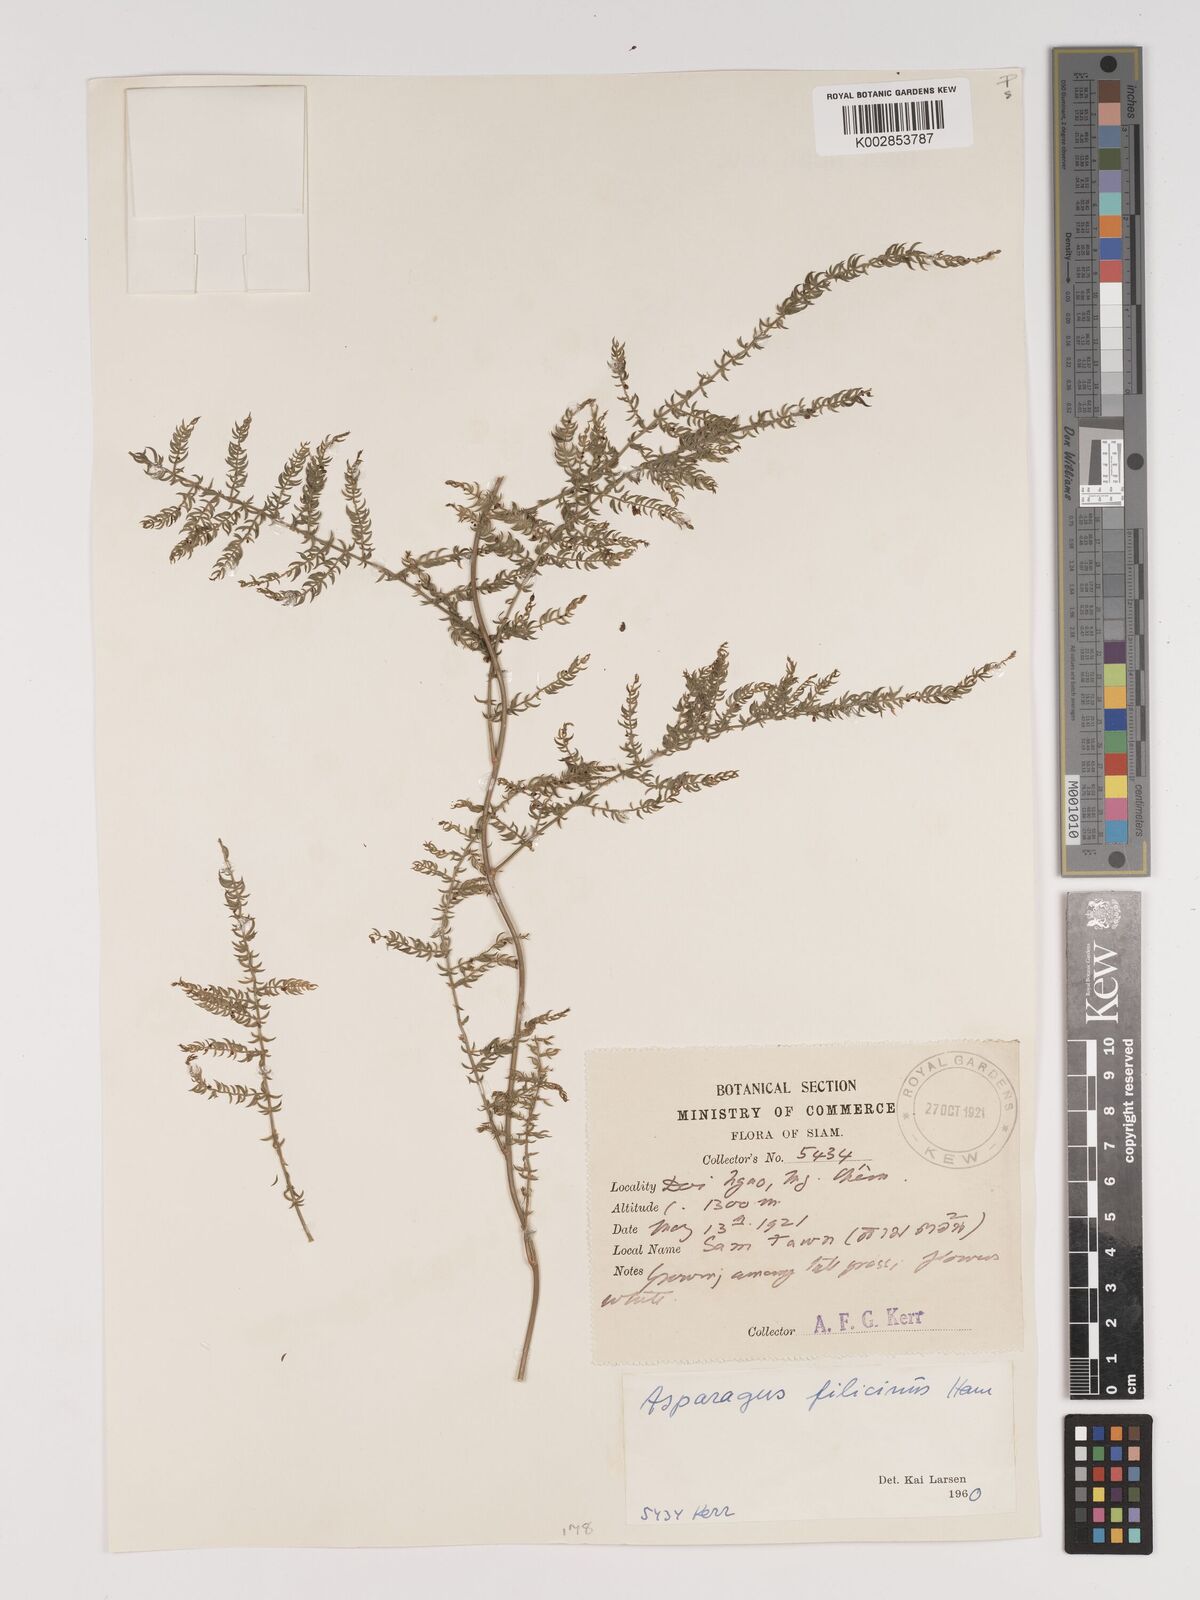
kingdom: Plantae
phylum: Tracheophyta
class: Liliopsida
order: Asparagales
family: Asparagaceae
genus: Asparagus
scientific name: Asparagus filicinus
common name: Fern asparagus
